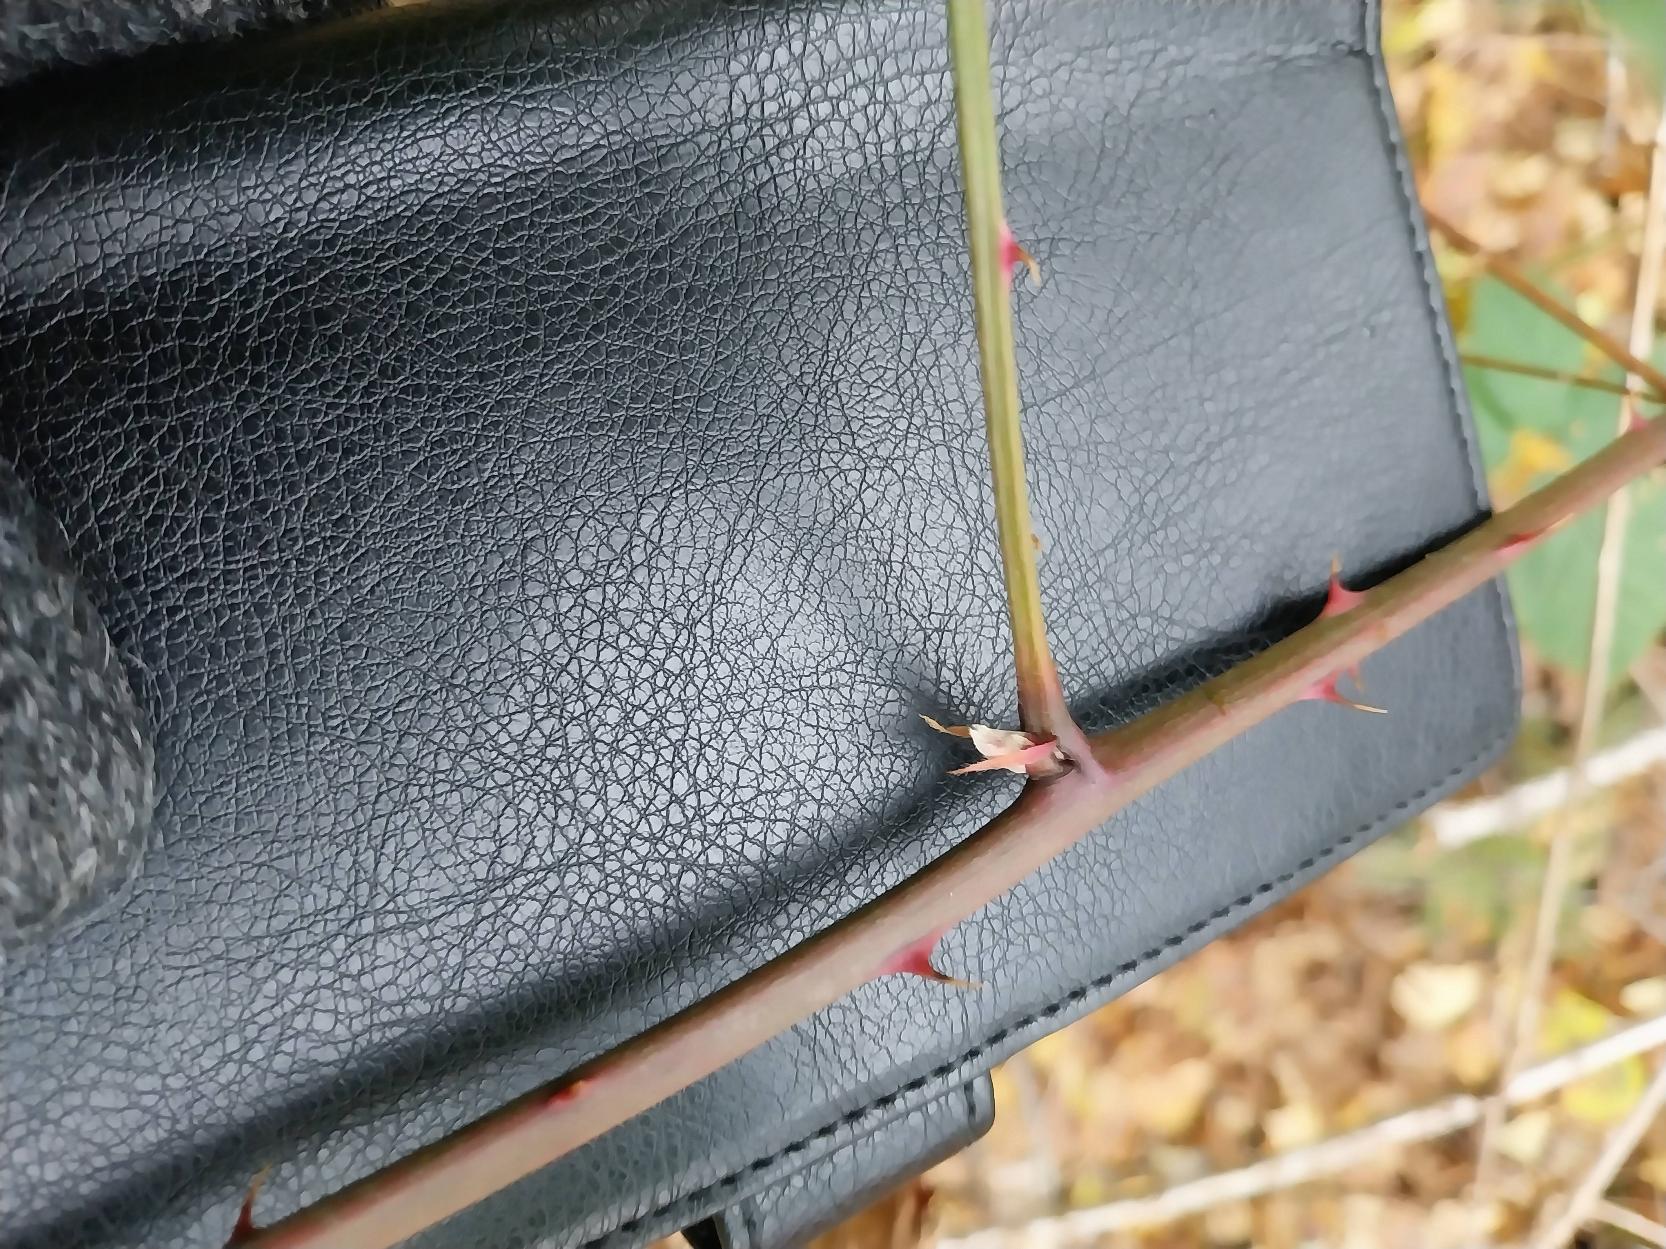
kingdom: Plantae
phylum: Tracheophyta
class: Magnoliopsida
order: Rosales
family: Rosaceae
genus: Rubus
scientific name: Rubus plicatus
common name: Almindelig brombær
